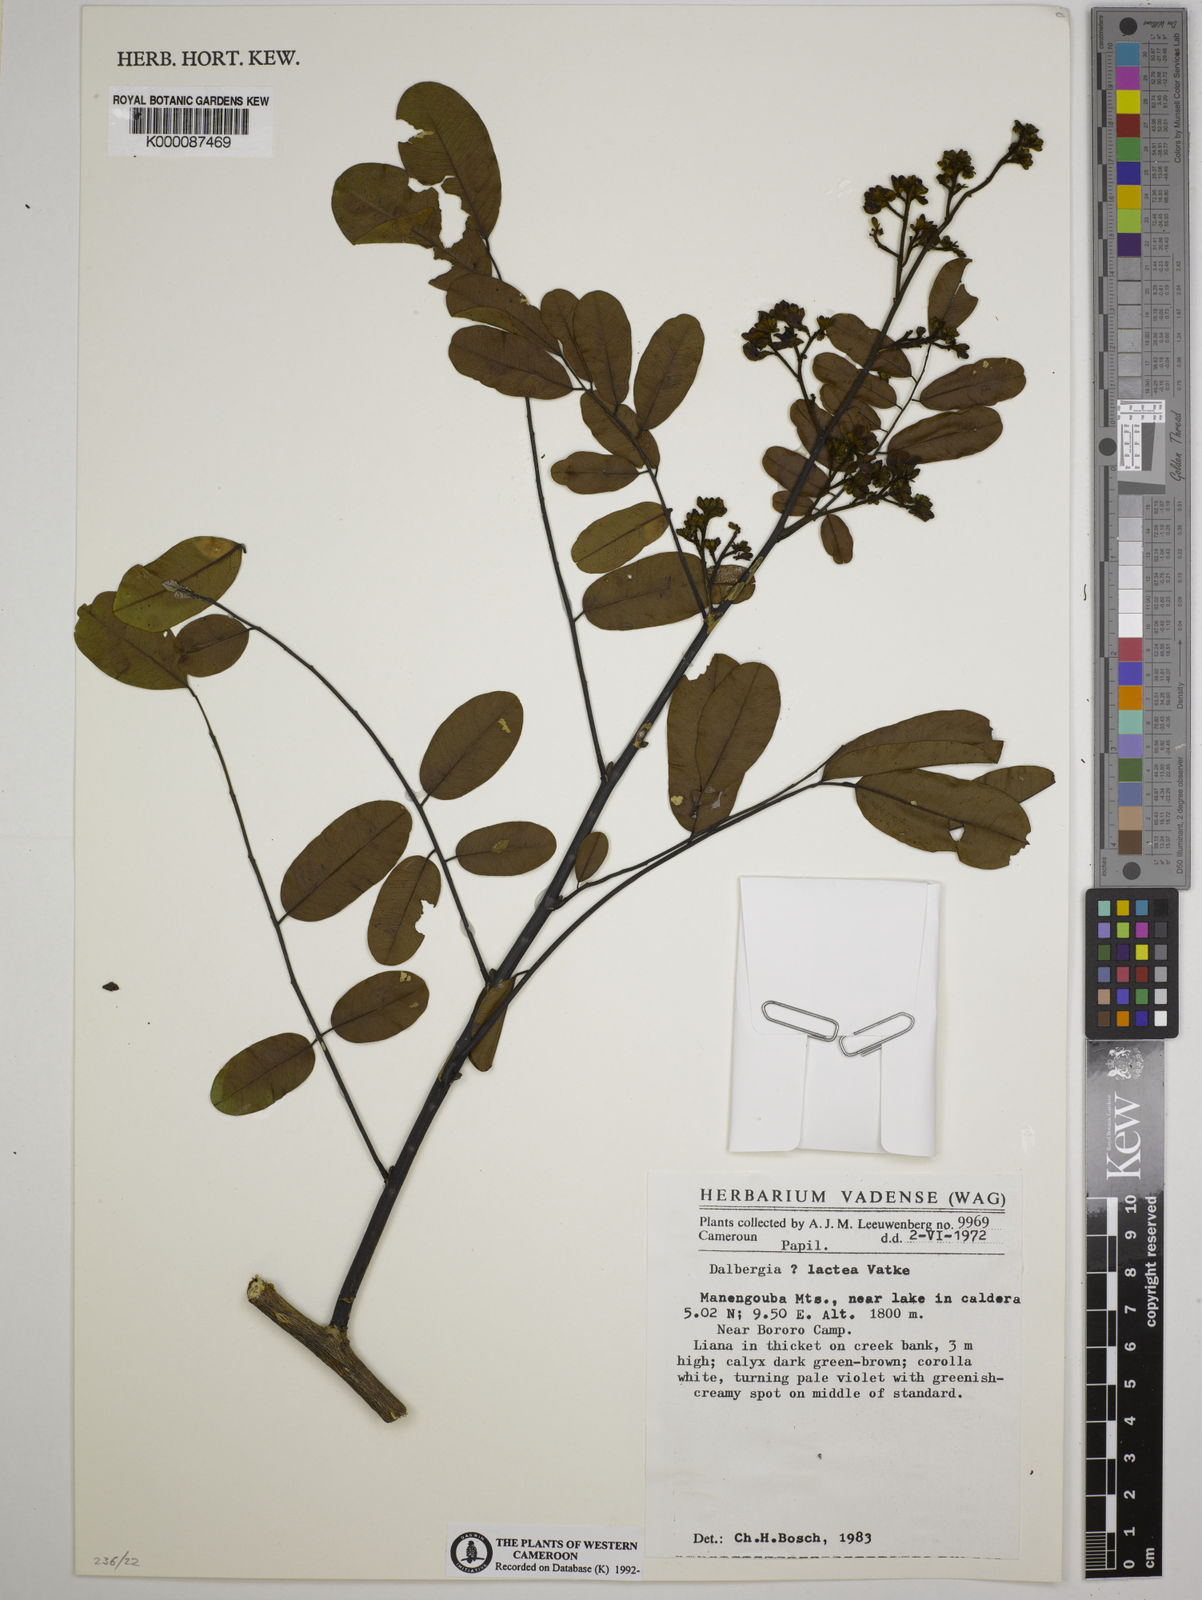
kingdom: Plantae
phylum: Tracheophyta
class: Magnoliopsida
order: Fabales
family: Fabaceae
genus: Dalbergia
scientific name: Dalbergia lactea
